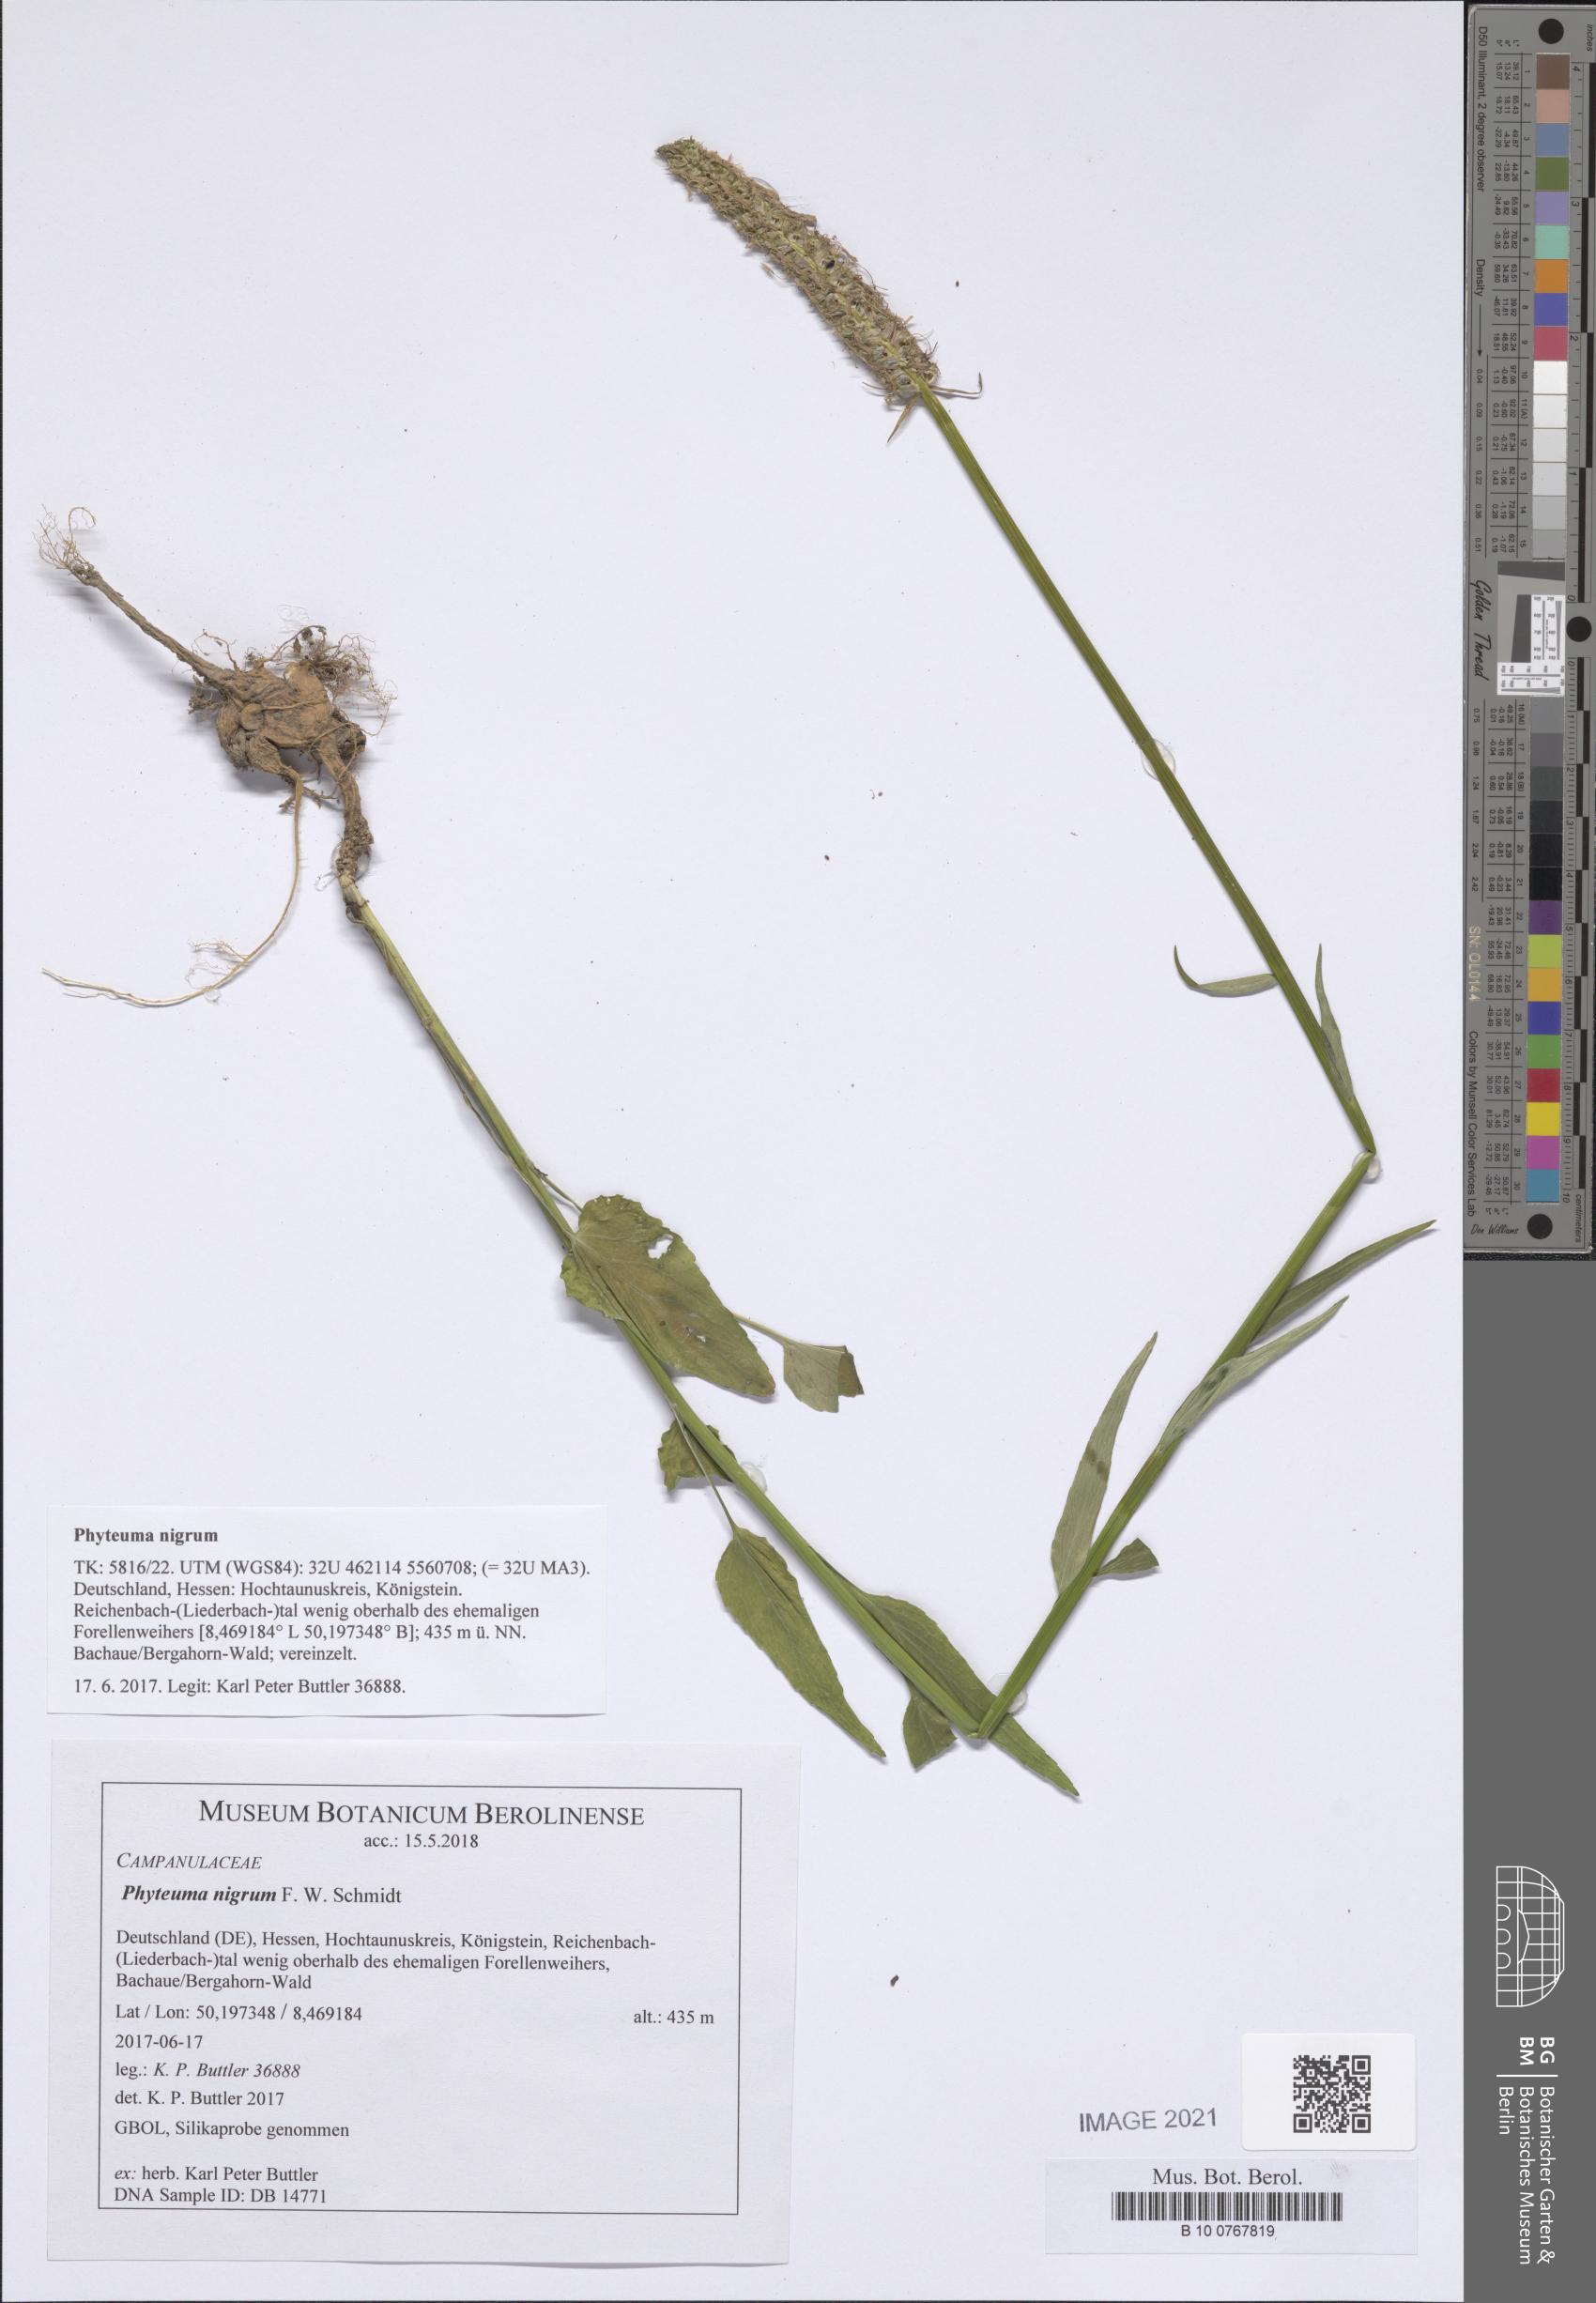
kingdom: Plantae
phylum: Tracheophyta
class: Magnoliopsida
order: Asterales
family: Campanulaceae
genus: Phyteuma
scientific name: Phyteuma nigrum
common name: Black rampion
